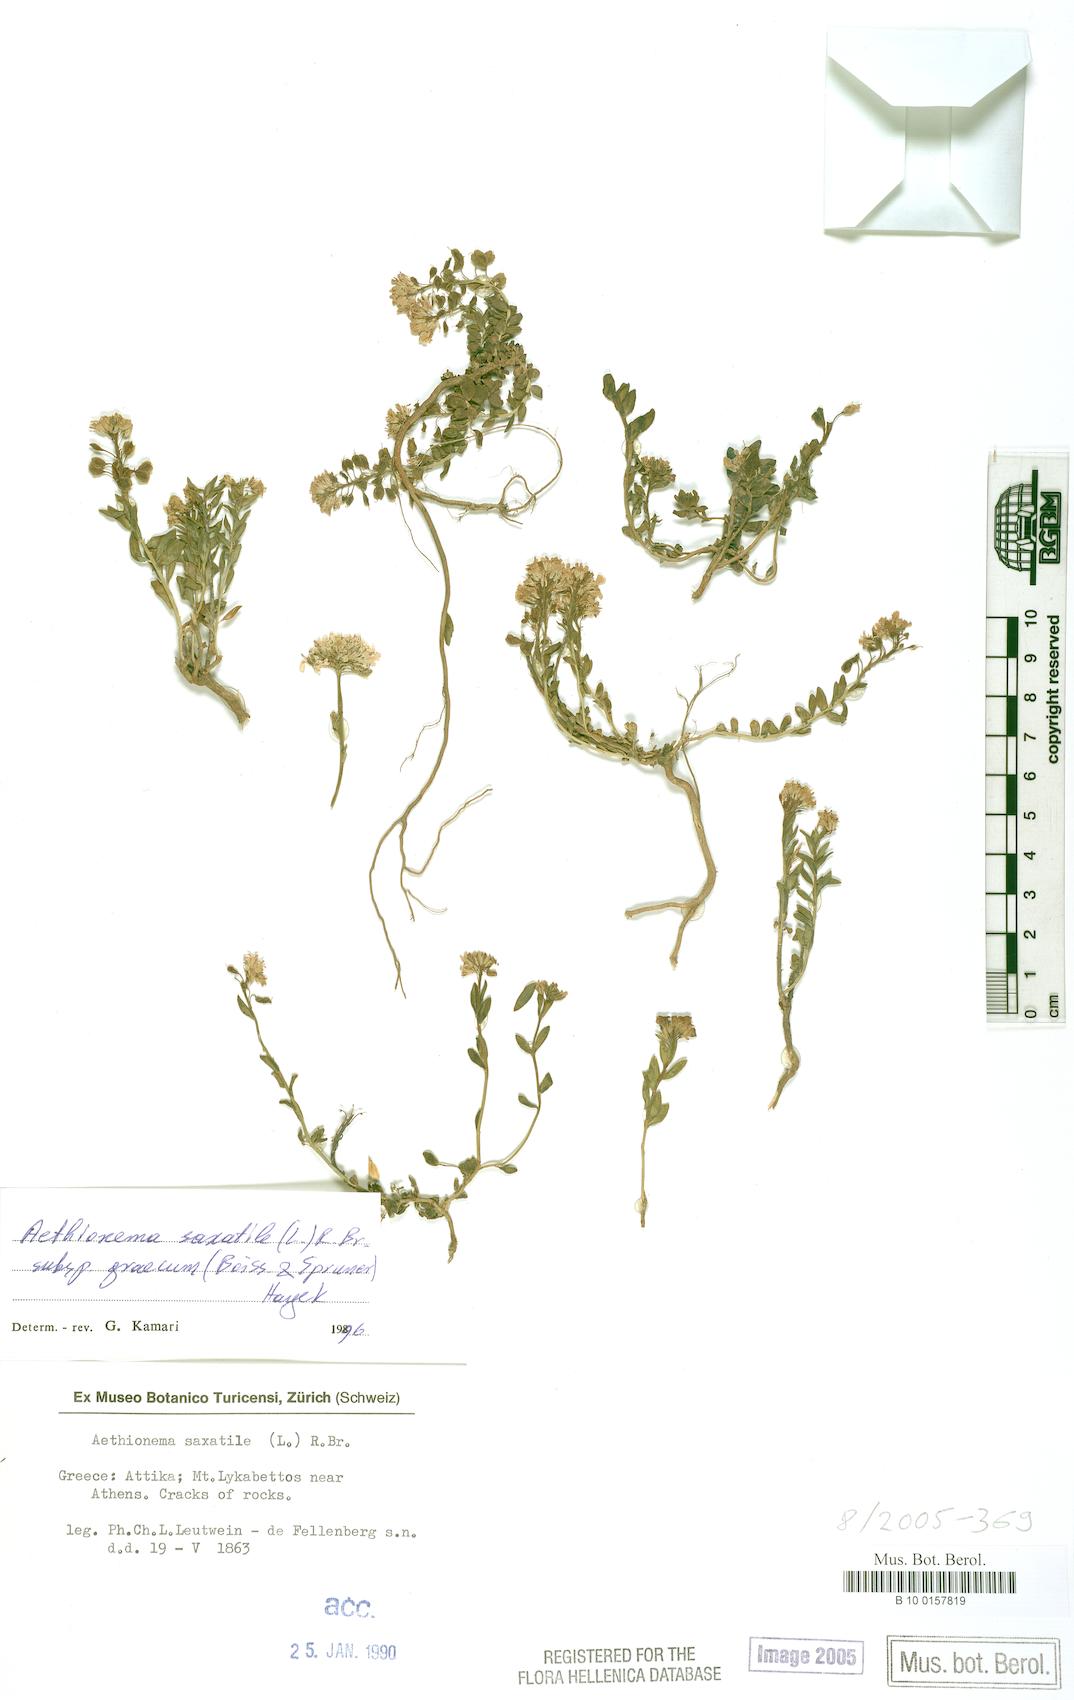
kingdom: Plantae
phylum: Tracheophyta
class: Magnoliopsida
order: Brassicales
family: Brassicaceae
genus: Aethionema
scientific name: Aethionema saxatile
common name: Burnt candytuft
